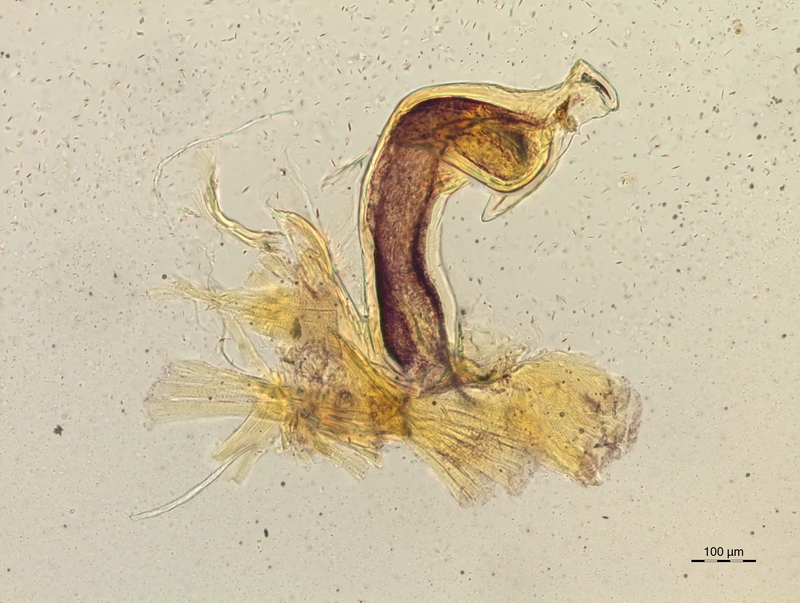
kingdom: Animalia
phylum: Arthropoda
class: Diplopoda
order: Chordeumatida
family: Craspedosomatidae
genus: Craspedosoma
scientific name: Craspedosoma rawlinsii
